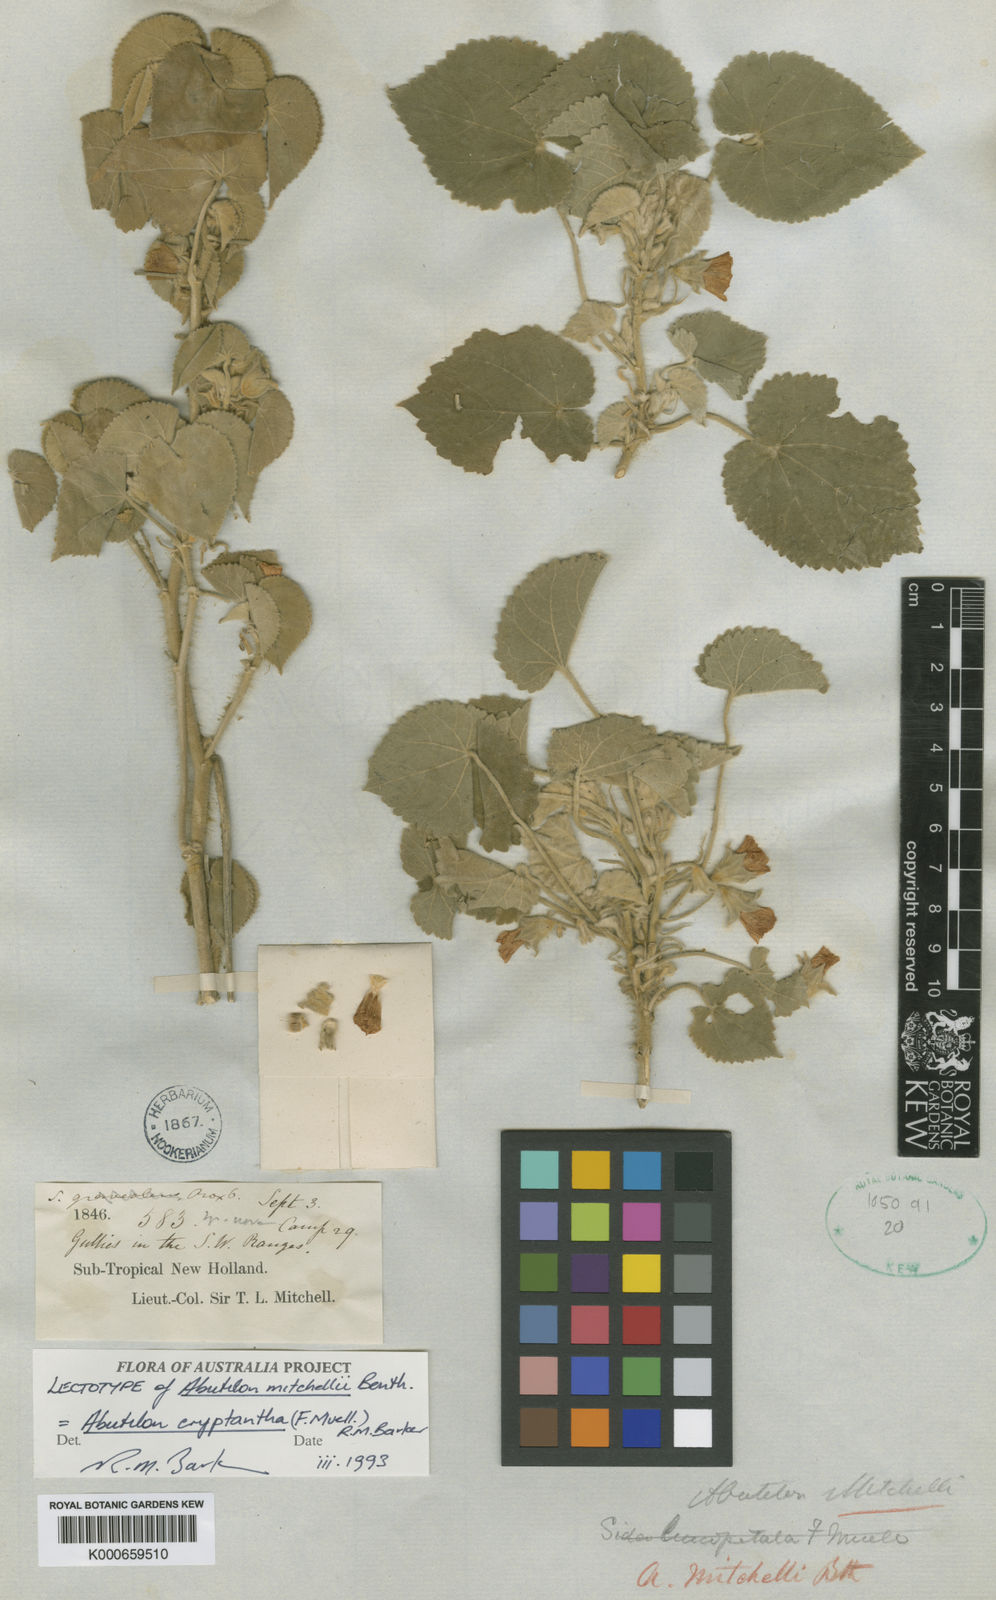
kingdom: Plantae
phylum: Tracheophyta
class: Magnoliopsida
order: Malvales
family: Malvaceae
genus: Abutilon
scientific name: Abutilon mitchellii
